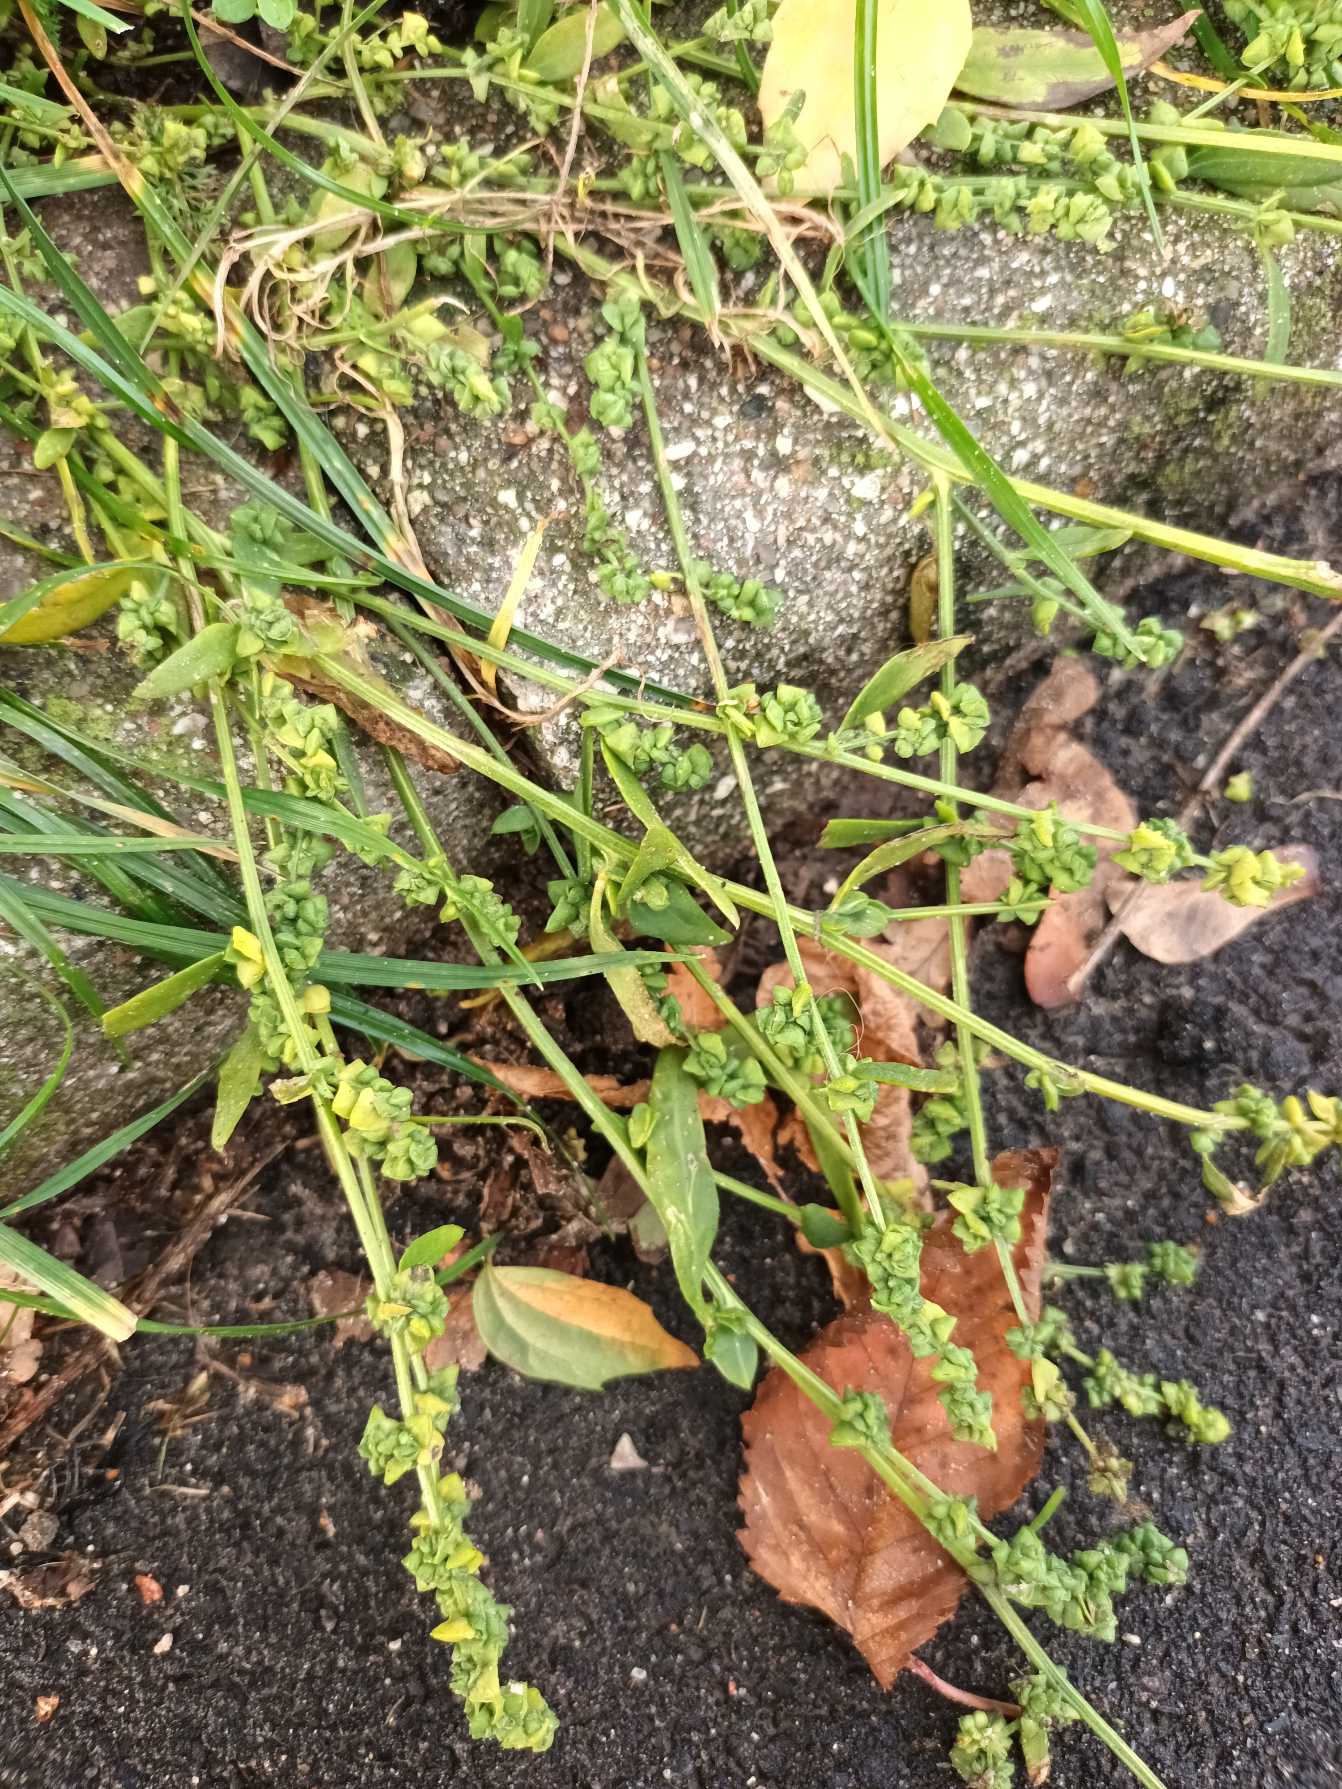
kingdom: Plantae
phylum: Tracheophyta
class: Magnoliopsida
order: Caryophyllales
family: Amaranthaceae
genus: Atriplex
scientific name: Atriplex patula
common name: Svine-mælde
